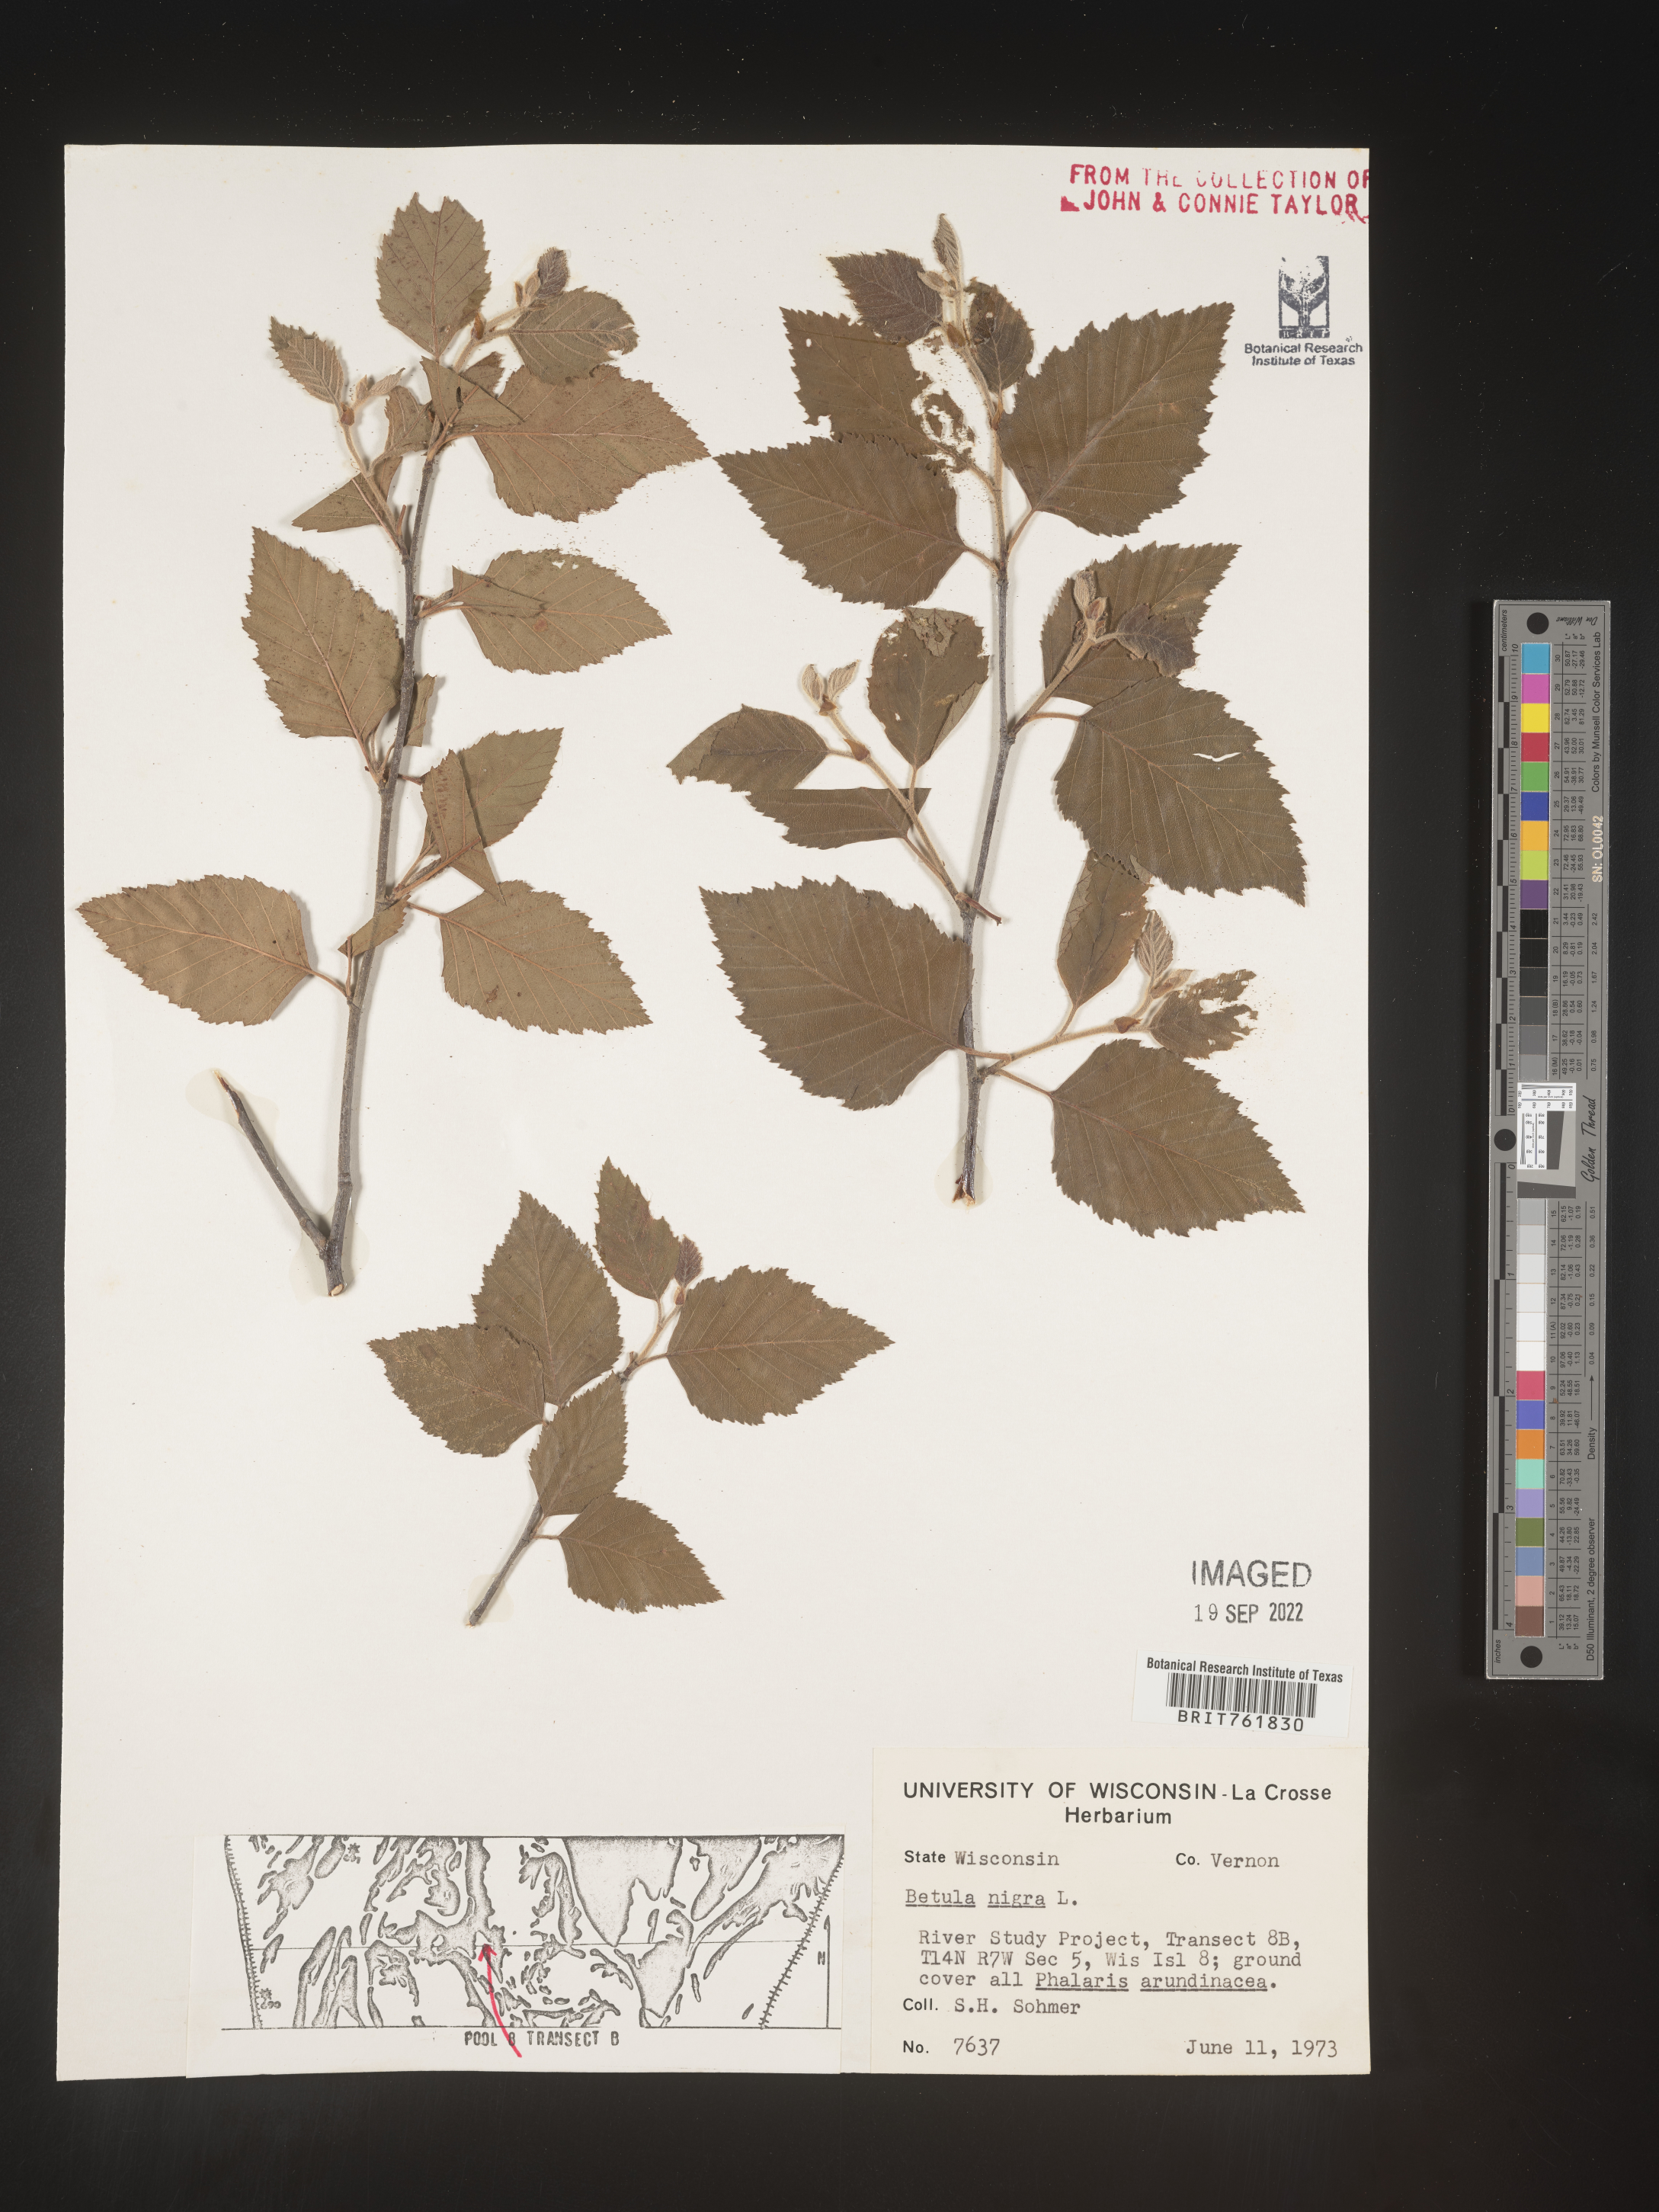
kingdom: Plantae
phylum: Tracheophyta
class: Magnoliopsida
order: Fagales
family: Betulaceae
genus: Betula
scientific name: Betula nigra
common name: Black birch
